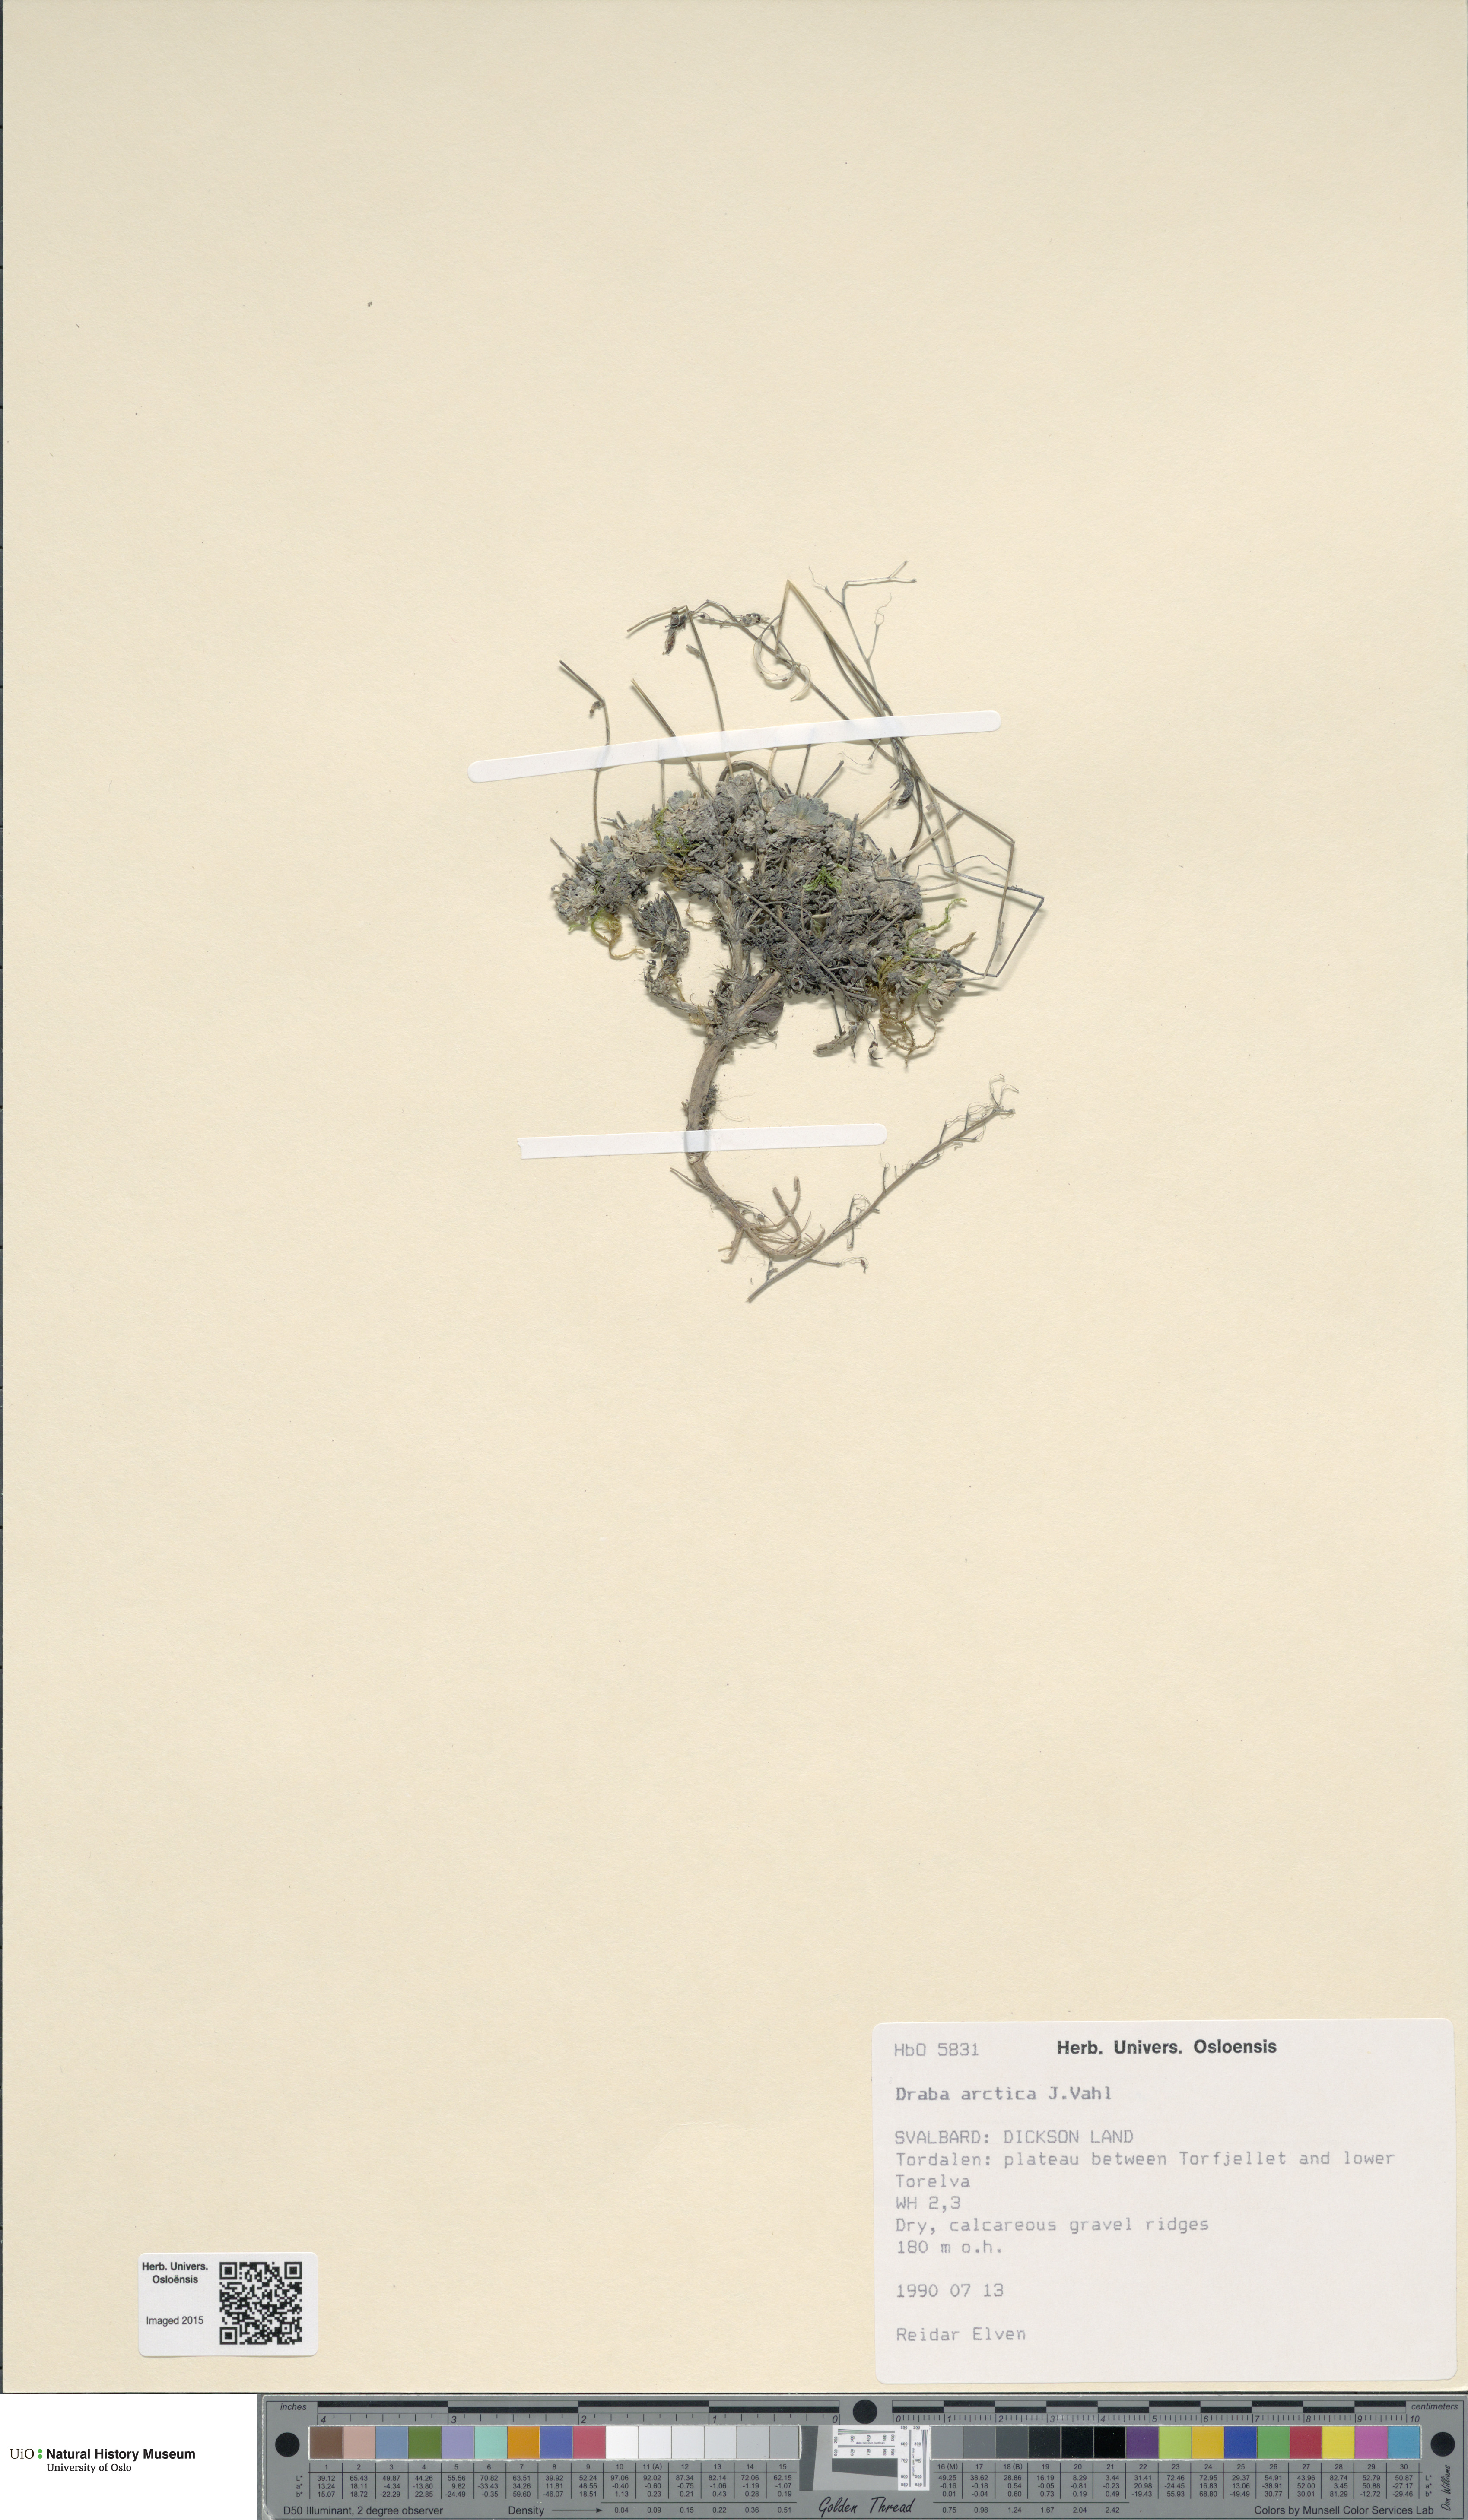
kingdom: Plantae
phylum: Tracheophyta
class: Magnoliopsida
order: Brassicales
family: Brassicaceae
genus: Draba
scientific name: Draba arctica
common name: Arctic draba
